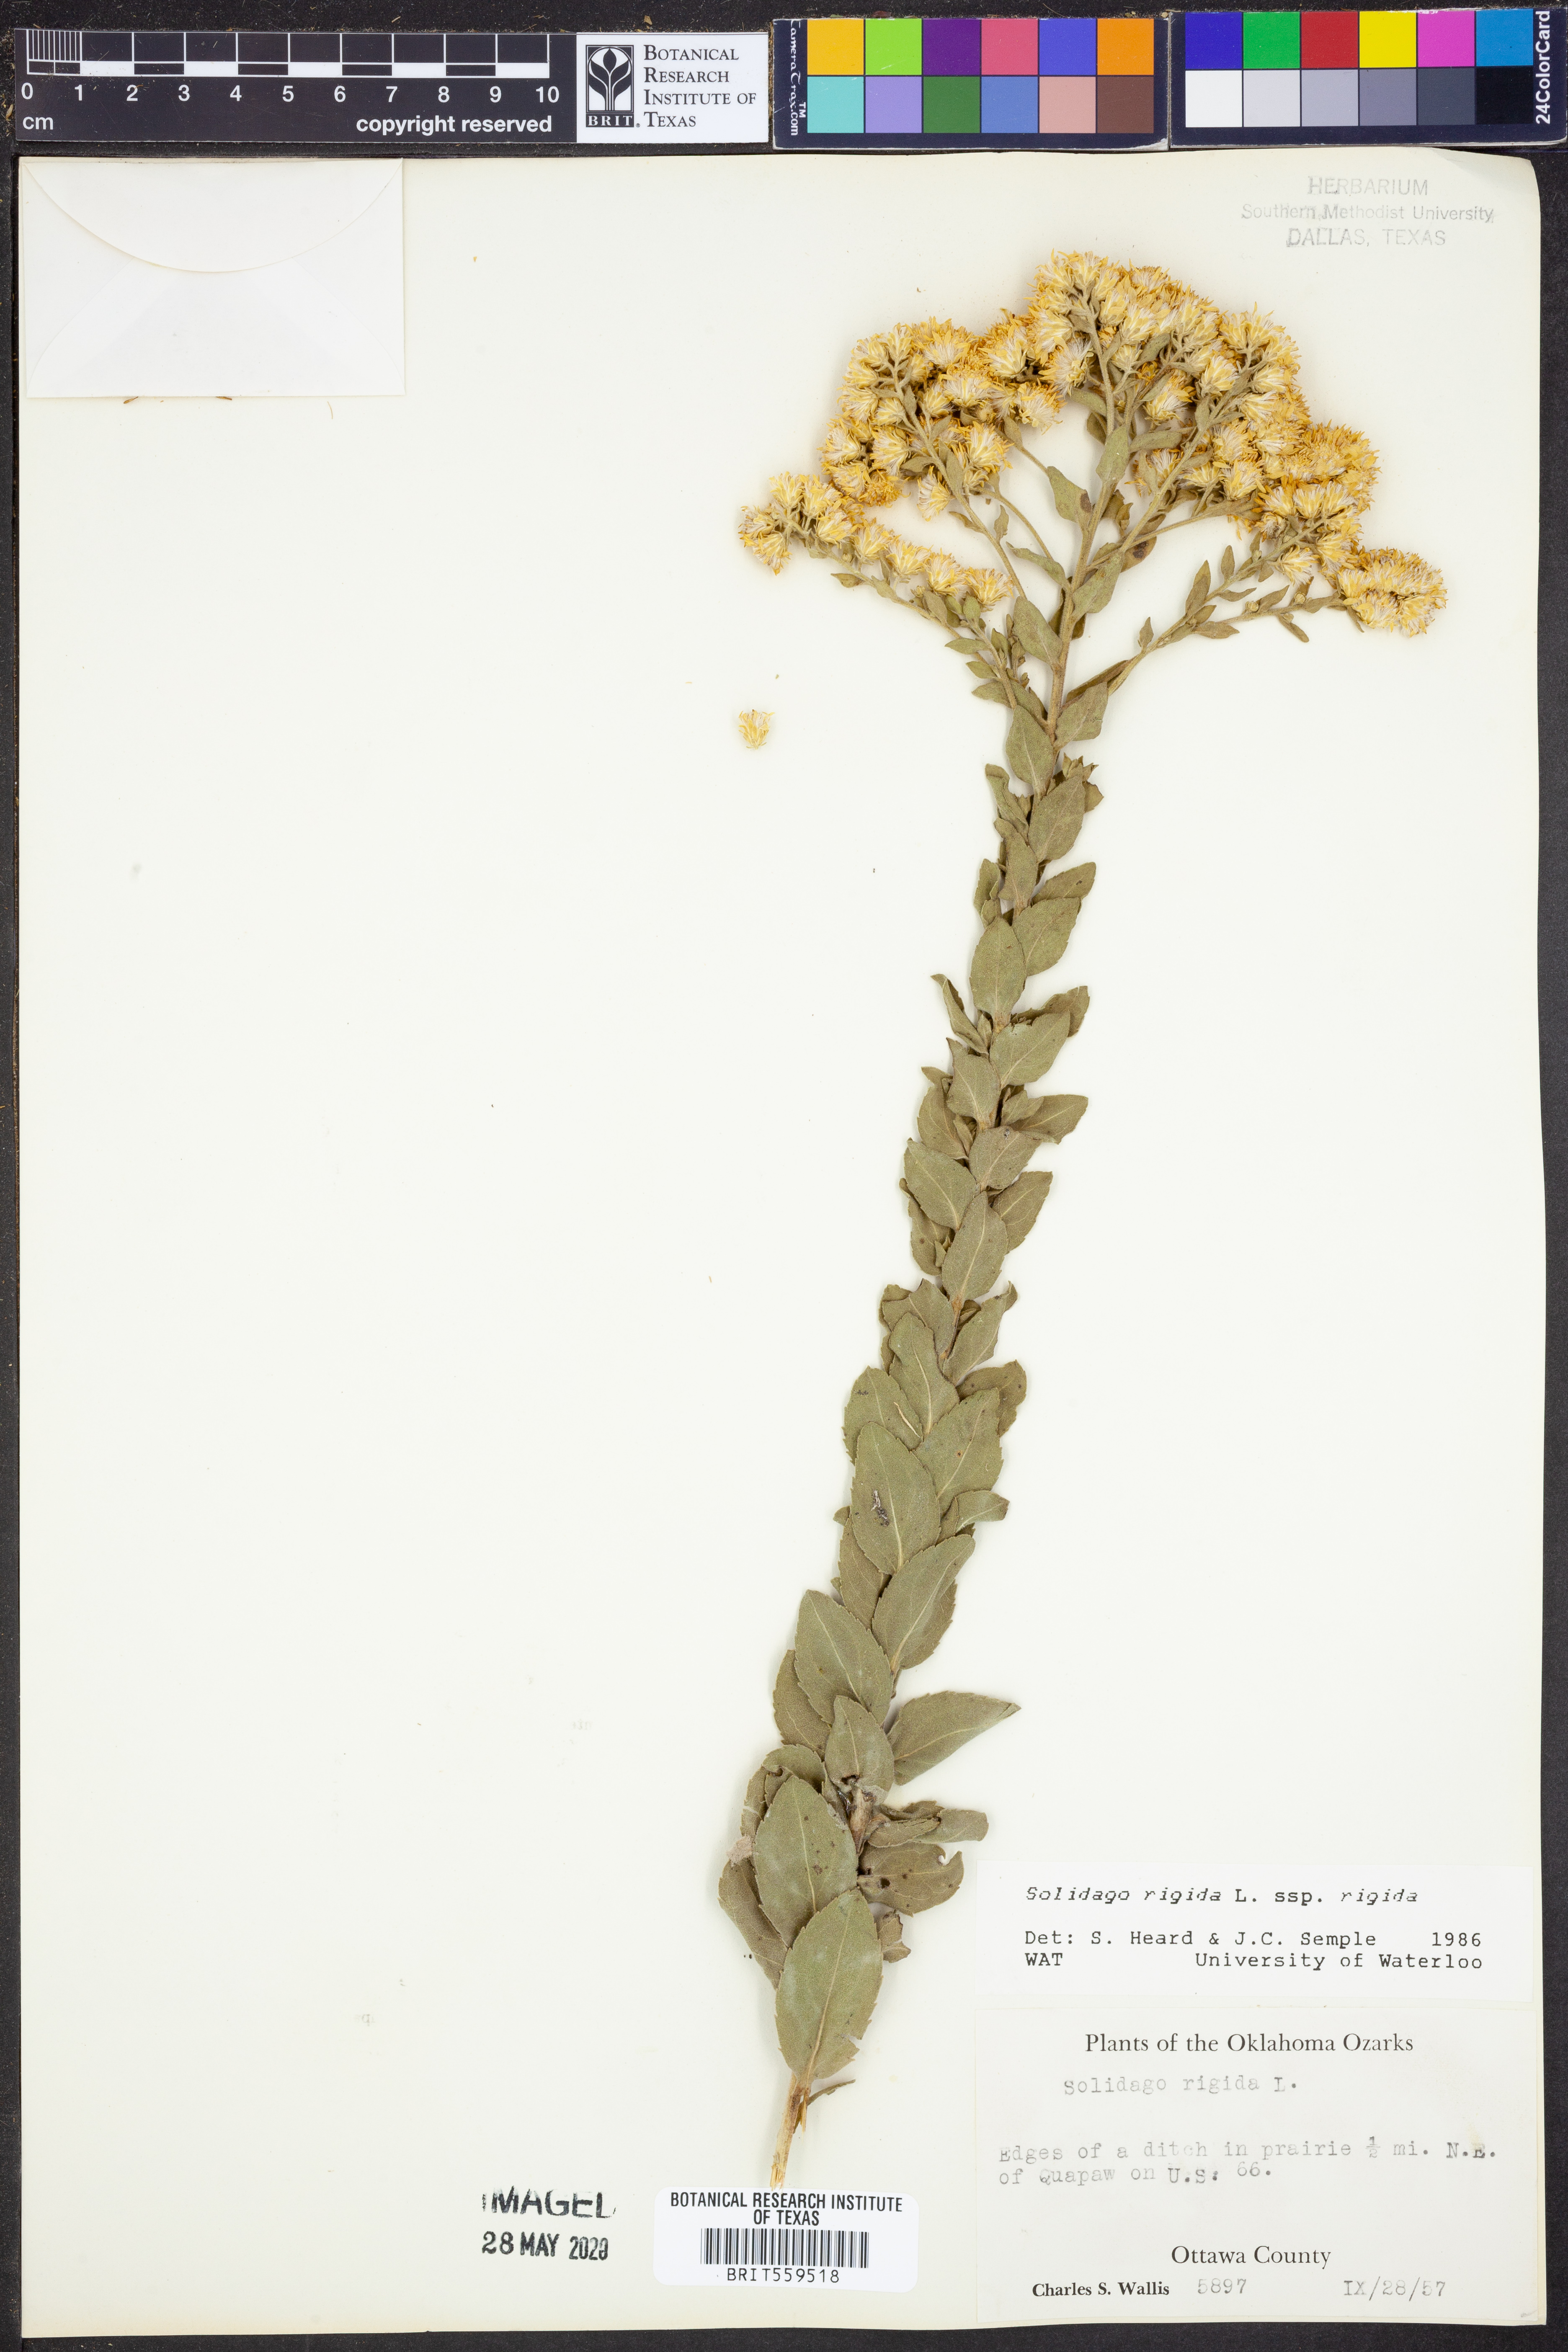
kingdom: Plantae
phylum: Tracheophyta
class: Magnoliopsida
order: Asterales
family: Asteraceae
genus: Solidago
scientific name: Solidago rigida
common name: Rigid goldenrod
